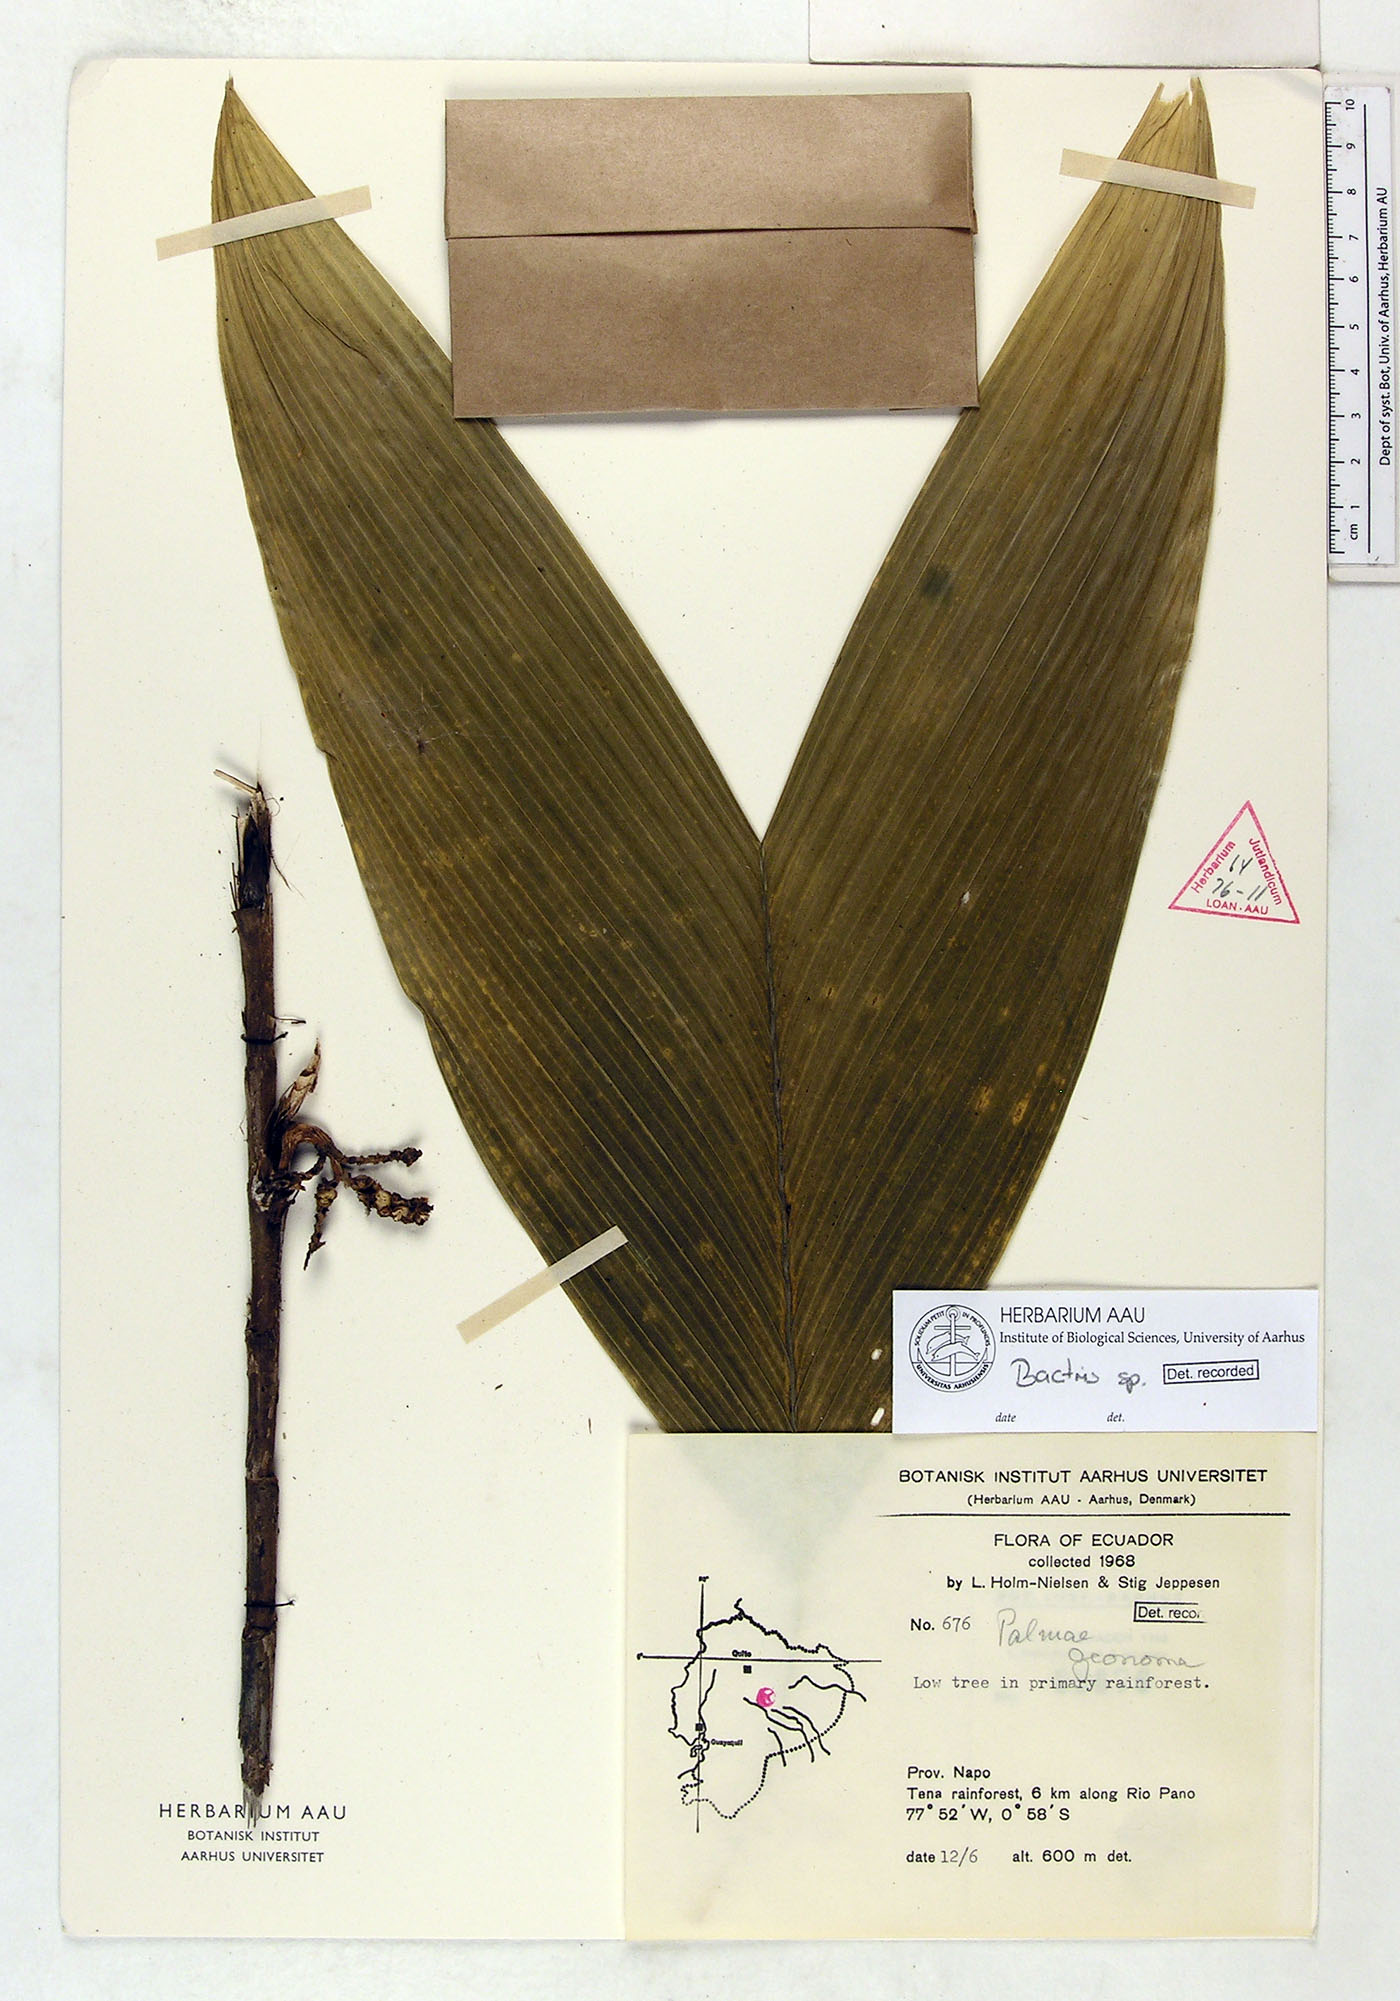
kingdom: Plantae
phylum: Tracheophyta
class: Liliopsida
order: Arecales
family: Arecaceae
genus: Bactris
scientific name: Bactris
